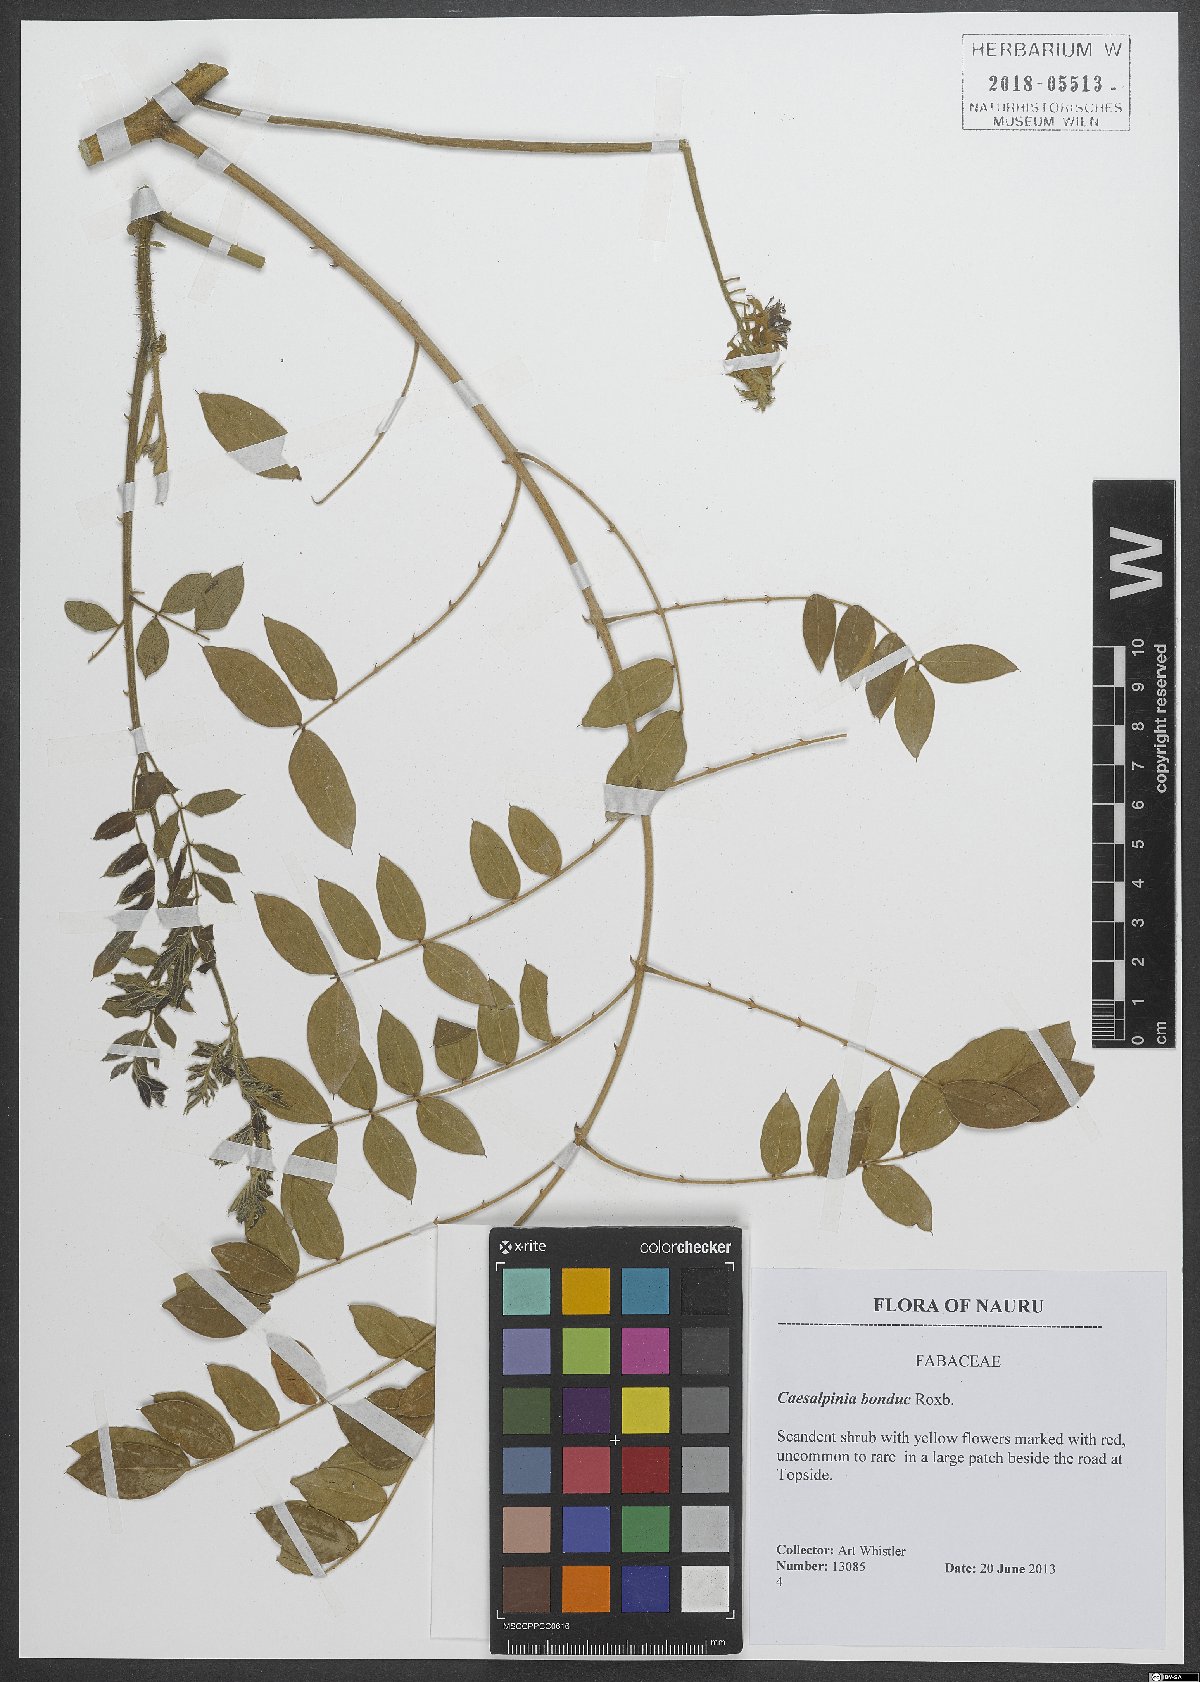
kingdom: Plantae
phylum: Tracheophyta
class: Magnoliopsida
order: Fabales
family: Fabaceae
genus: Guilandina
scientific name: Guilandina bonduc
